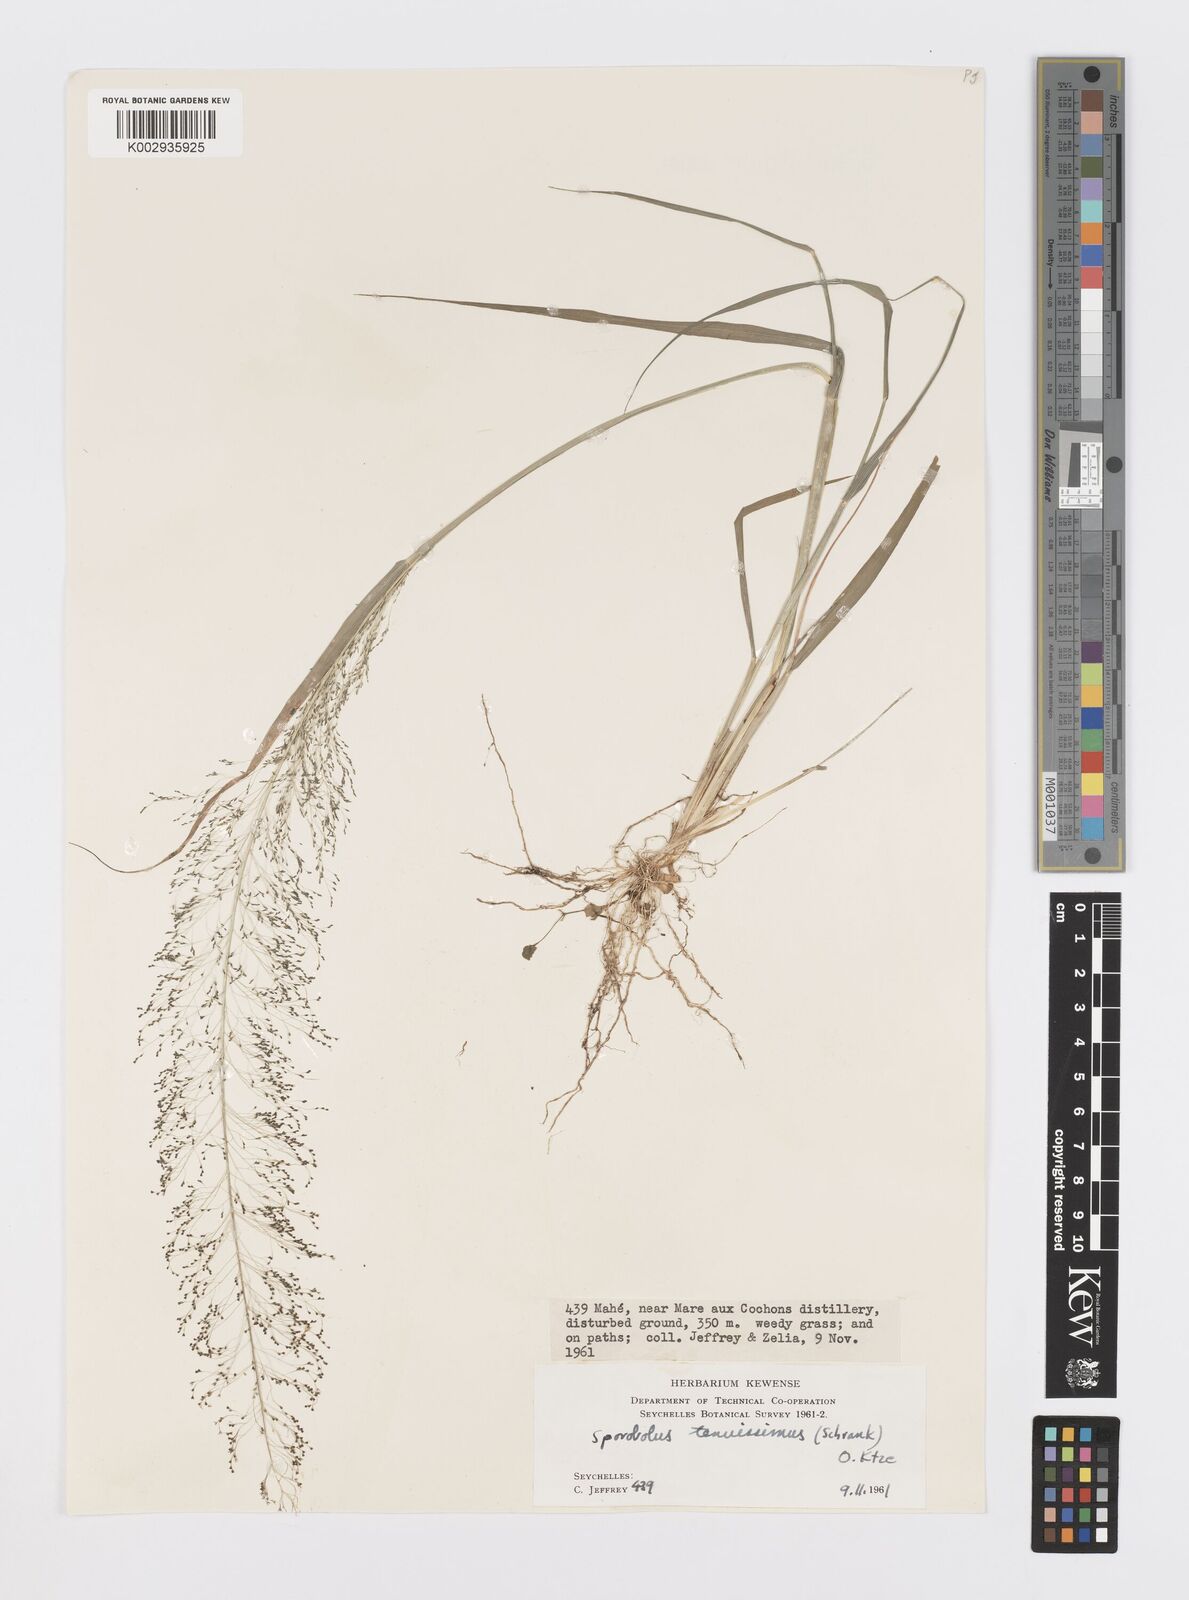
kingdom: Plantae
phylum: Tracheophyta
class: Liliopsida
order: Poales
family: Poaceae
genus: Sporobolus
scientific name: Sporobolus tenuissimus
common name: Tropical dropseed
